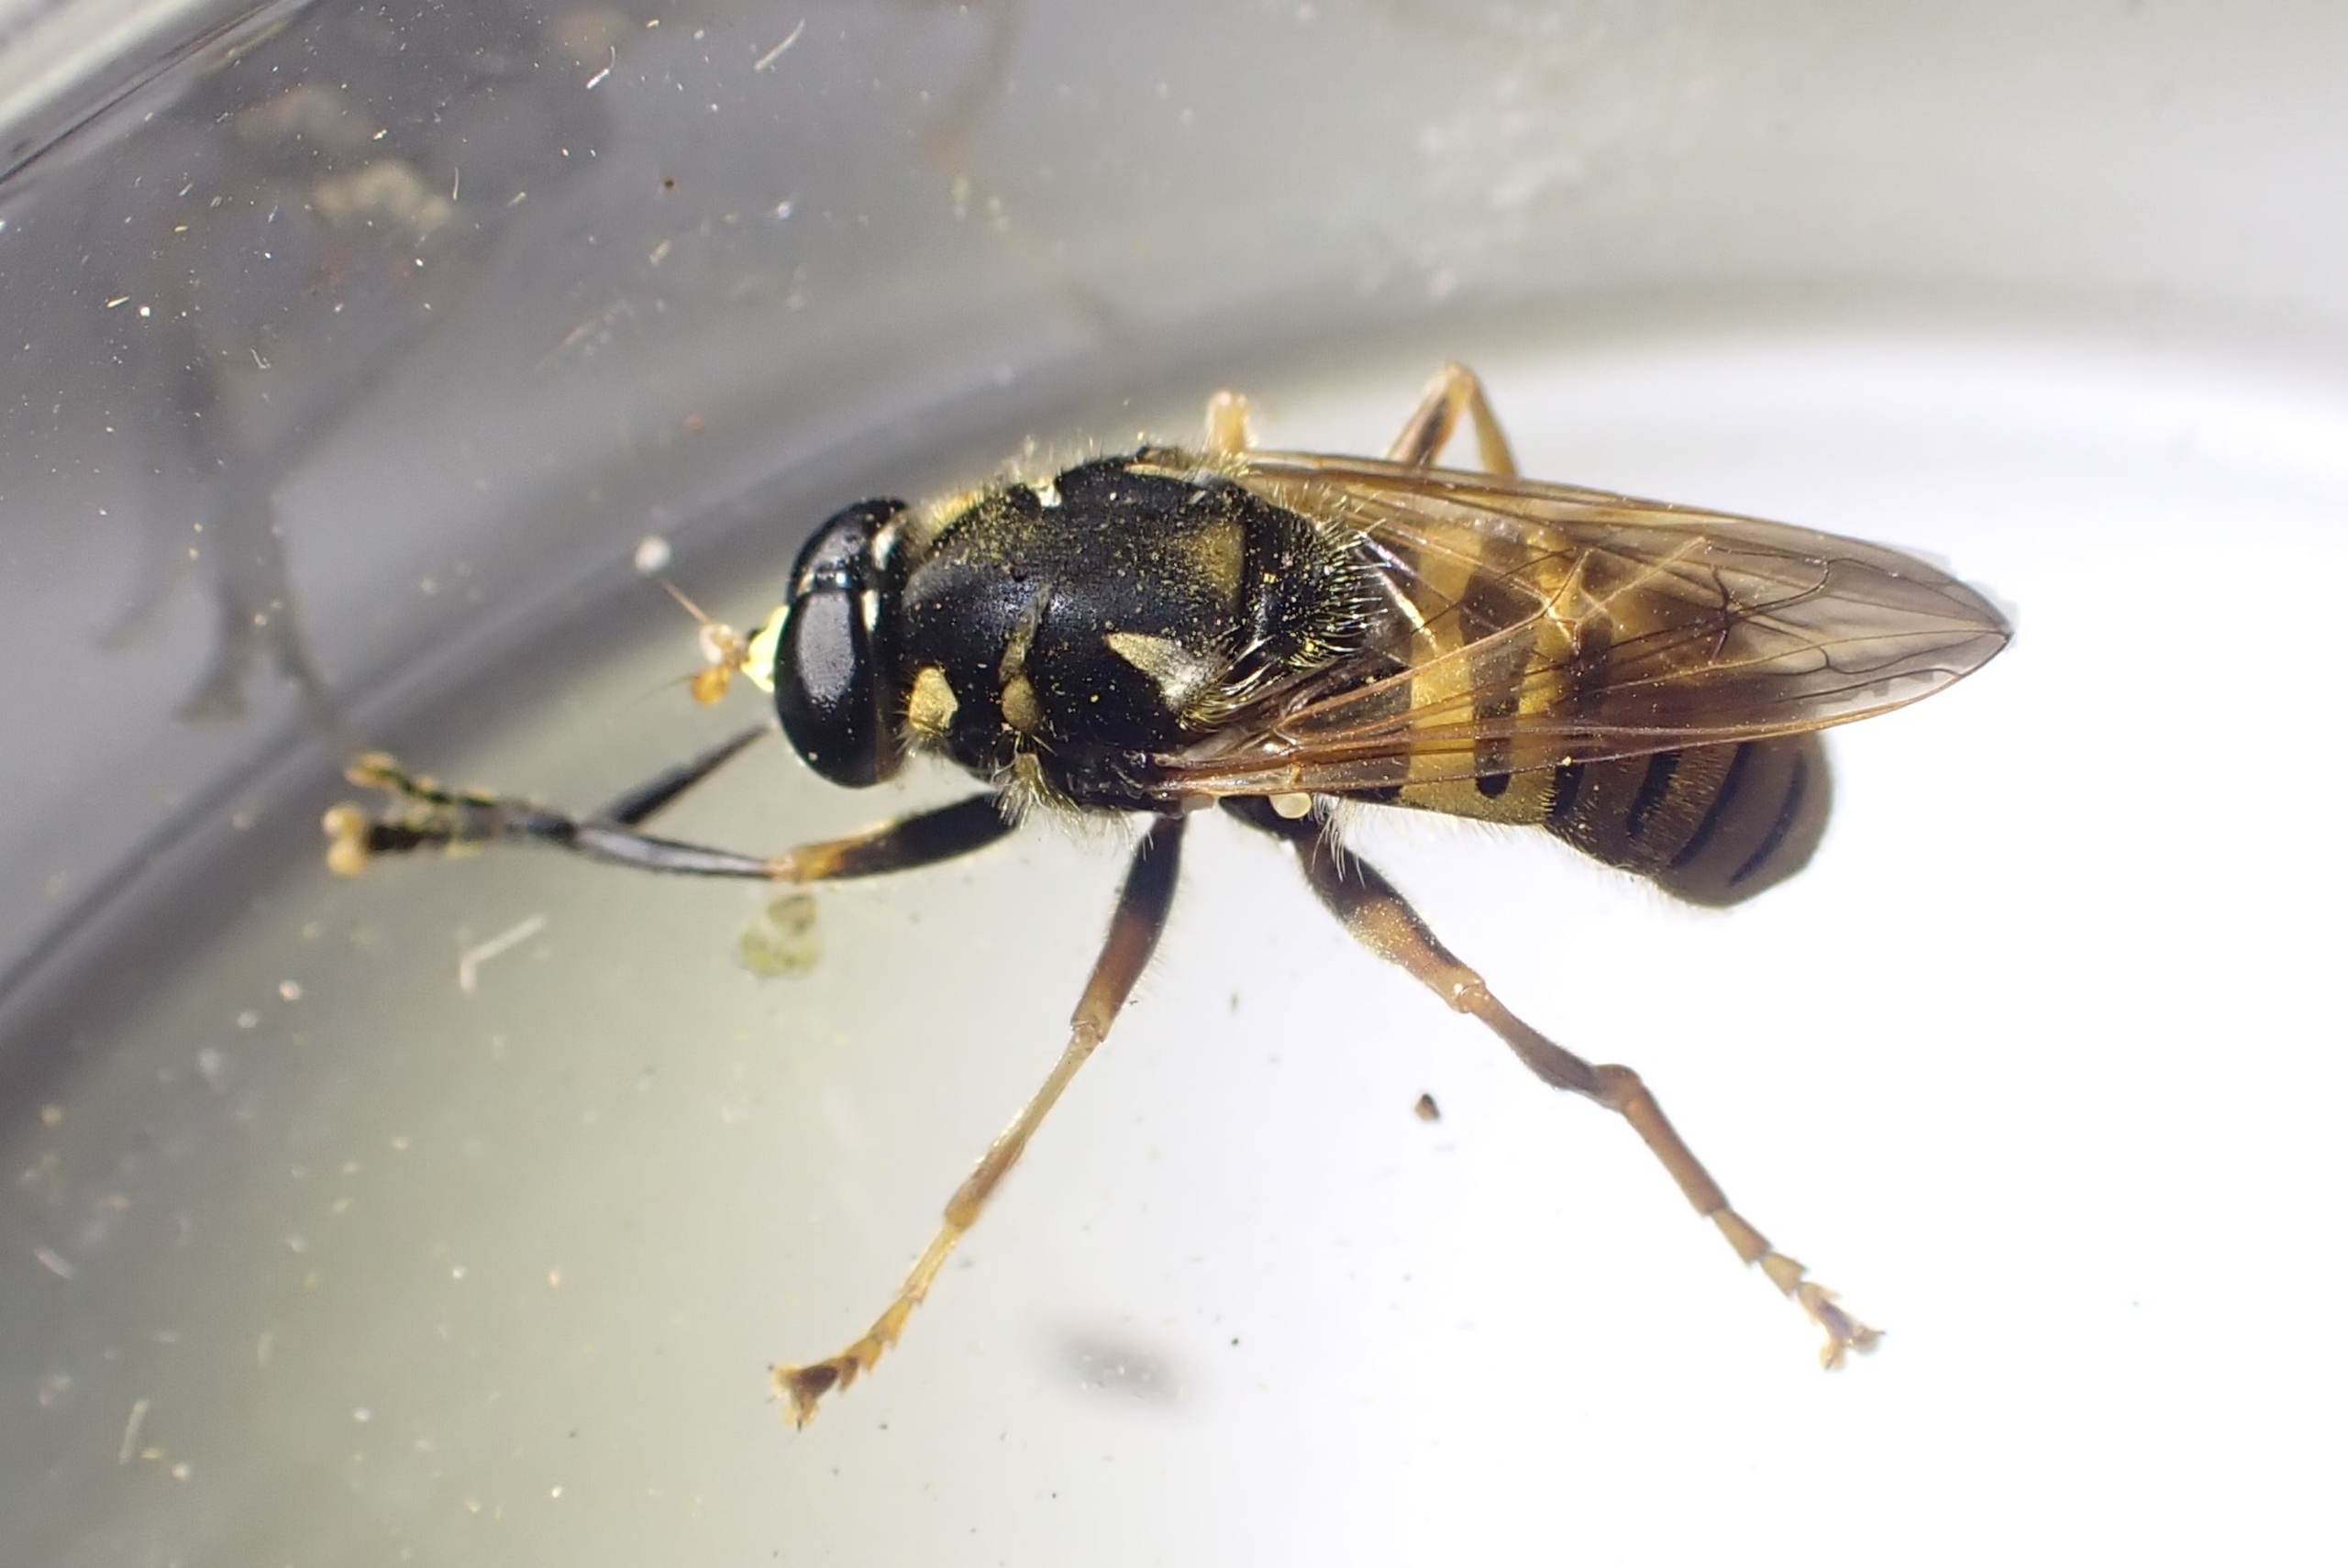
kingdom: Animalia
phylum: Arthropoda
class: Insecta
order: Diptera
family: Syrphidae
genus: Temnostoma
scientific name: Temnostoma vespiforme
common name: Gul vedsvirreflue
